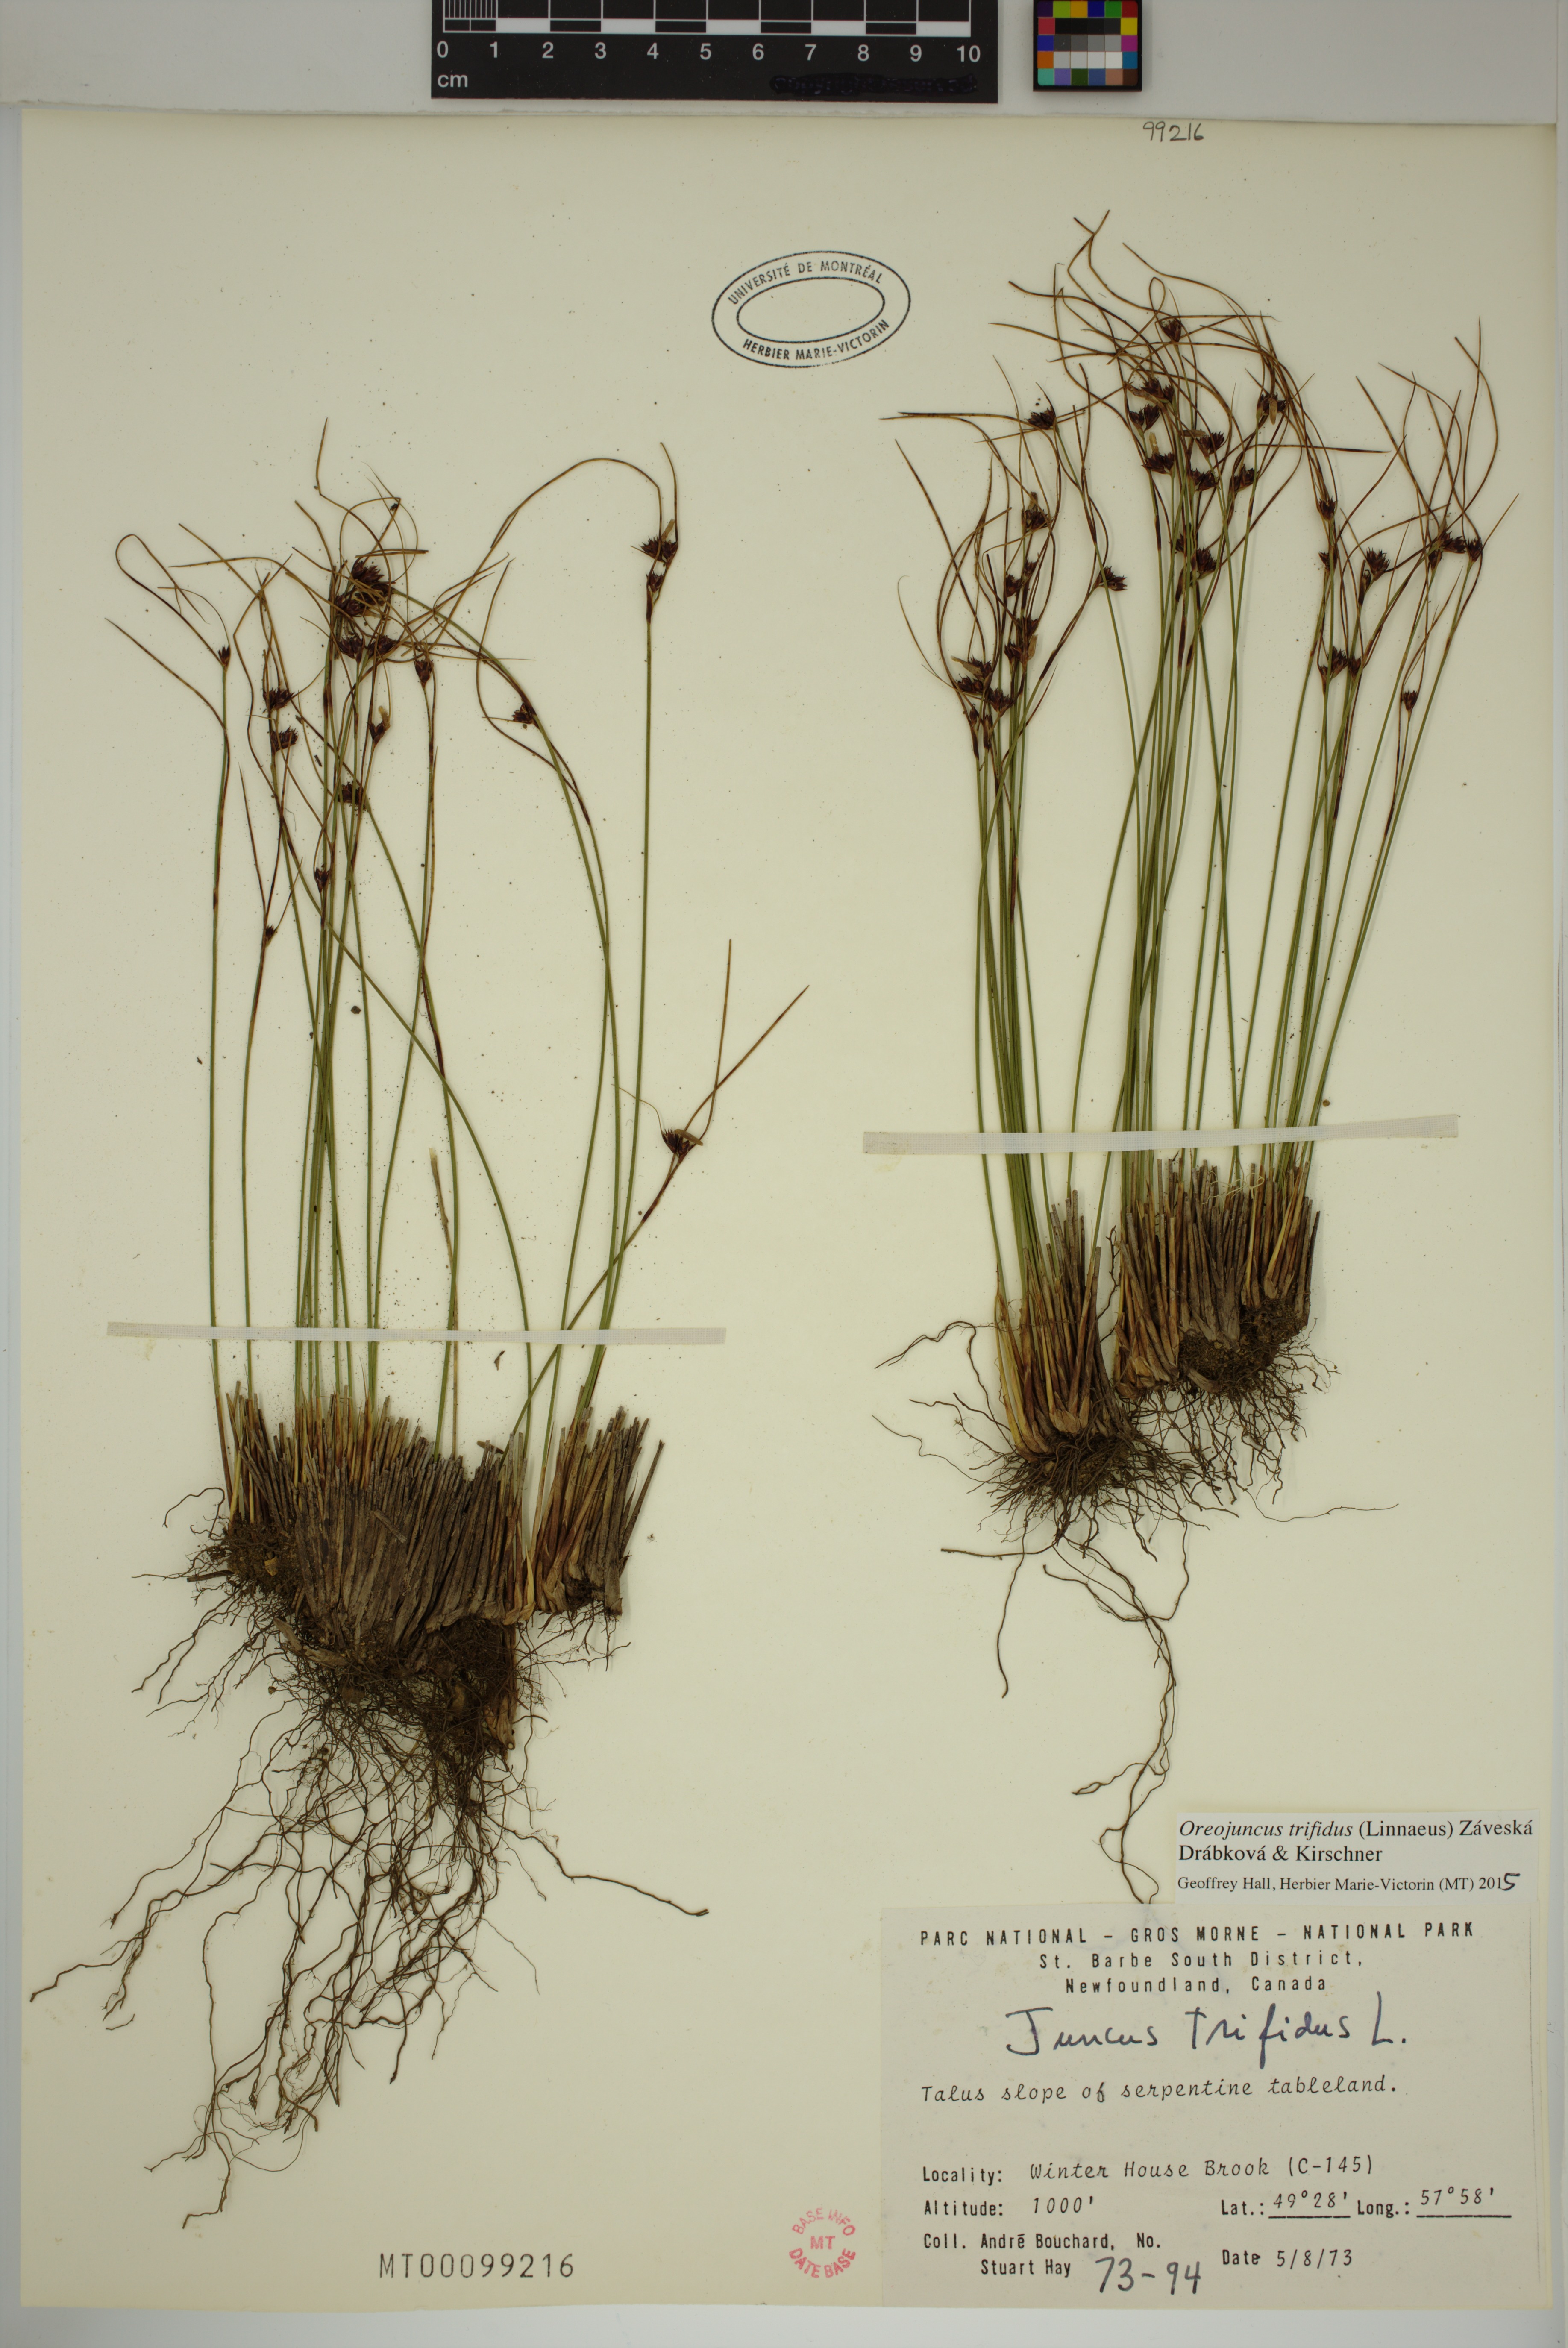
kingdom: Plantae
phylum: Tracheophyta
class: Liliopsida
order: Poales
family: Juncaceae
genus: Oreojuncus
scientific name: Oreojuncus trifidus
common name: Highland rush
